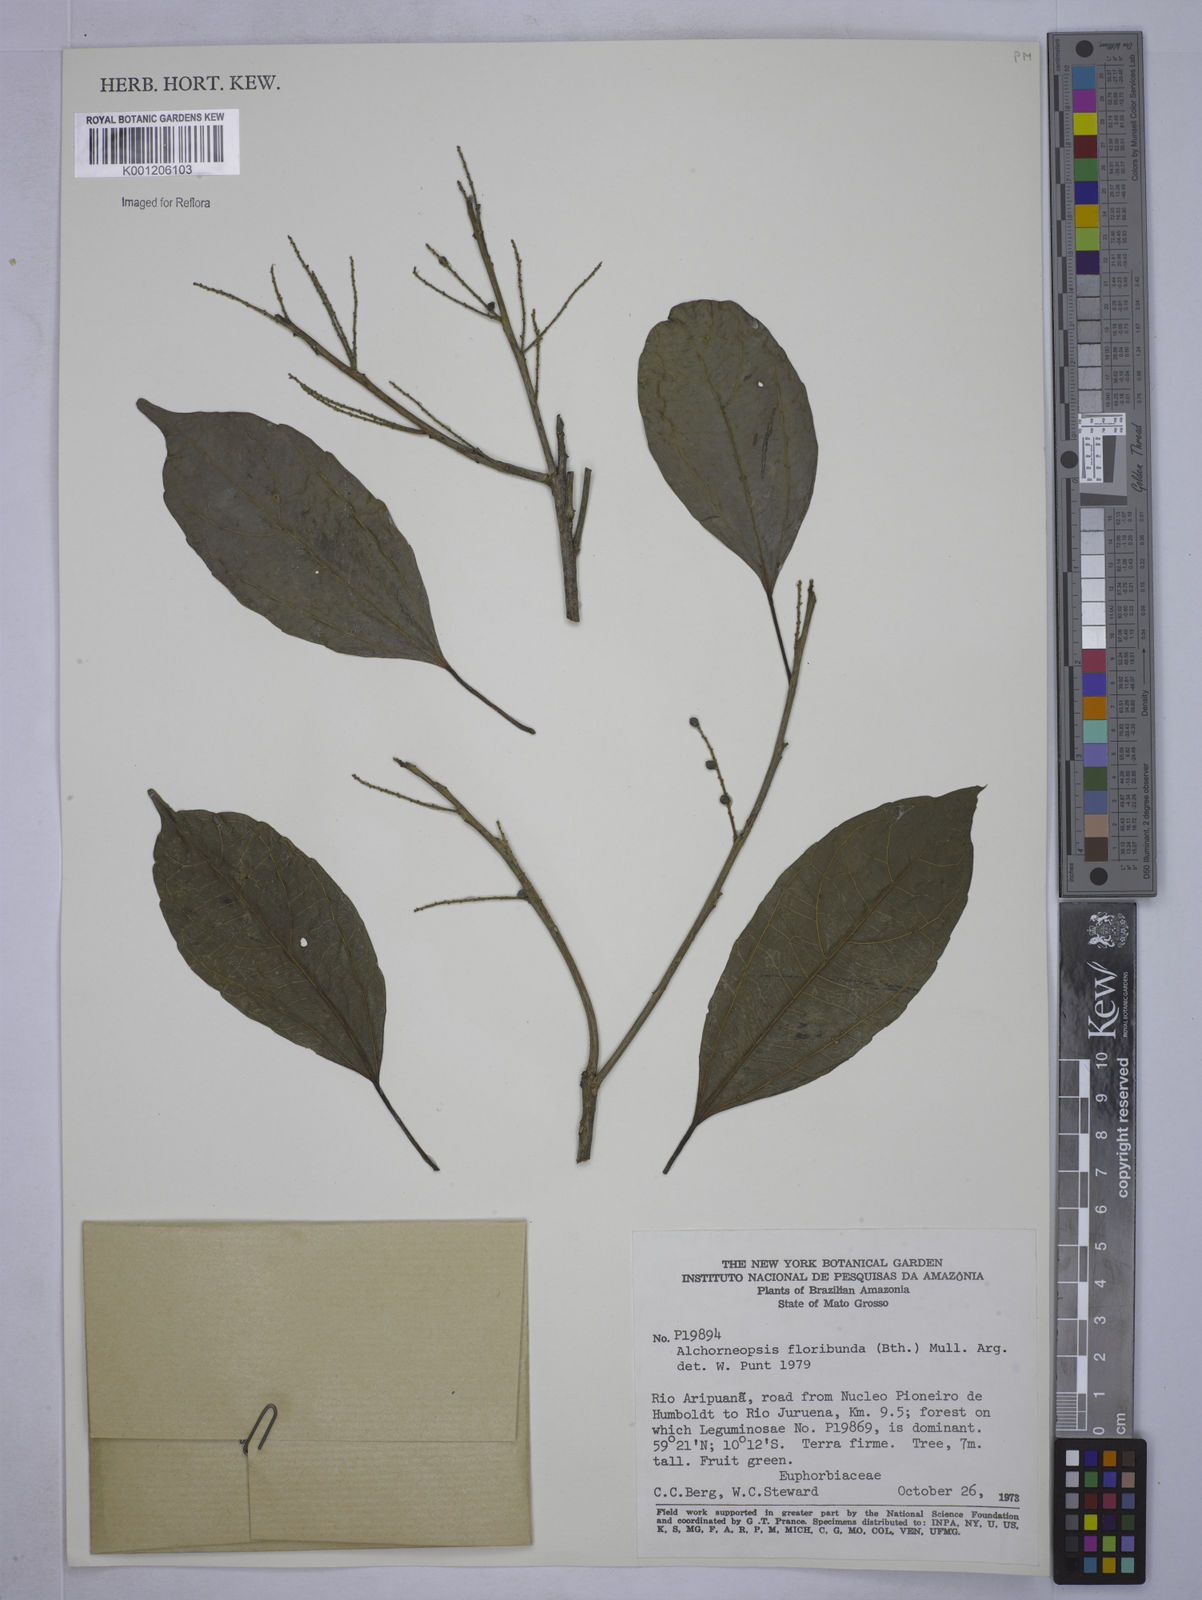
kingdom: Plantae
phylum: Tracheophyta
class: Magnoliopsida
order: Malpighiales
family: Euphorbiaceae
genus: Alchorneopsis
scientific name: Alchorneopsis
